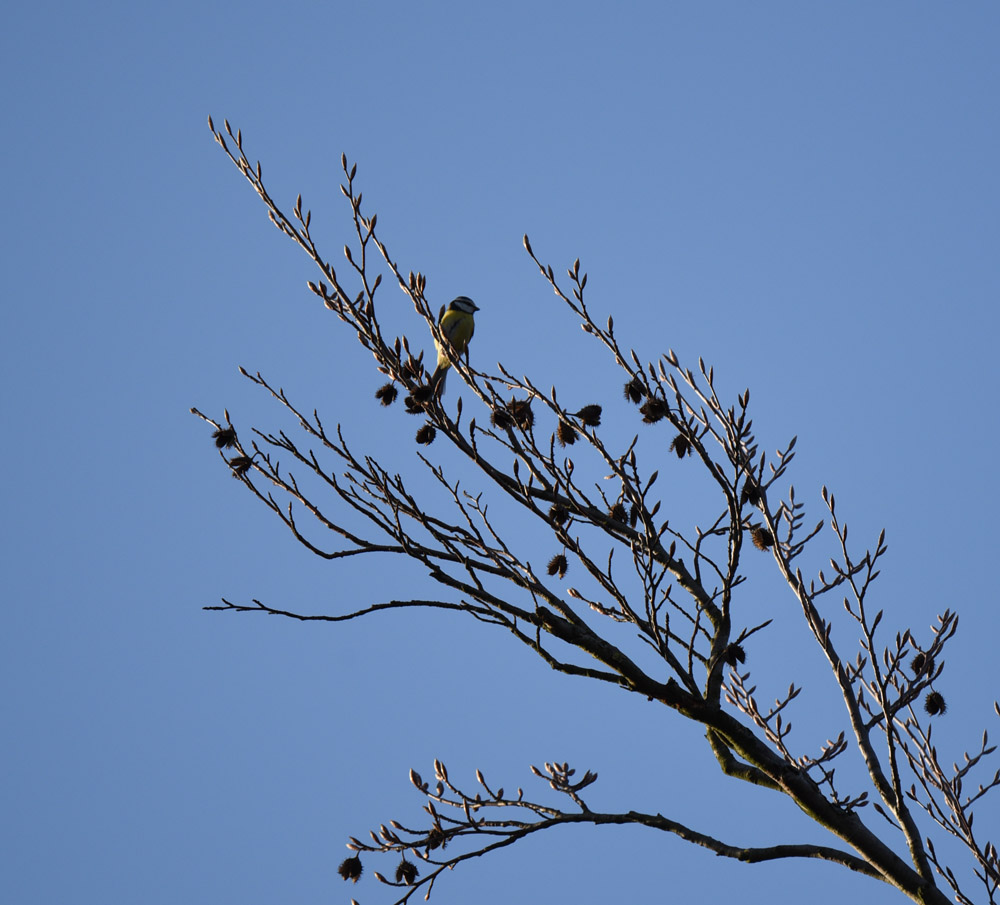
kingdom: Animalia
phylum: Chordata
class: Aves
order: Passeriformes
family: Paridae
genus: Cyanistes
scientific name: Cyanistes caeruleus
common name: Eurasian blue tit
